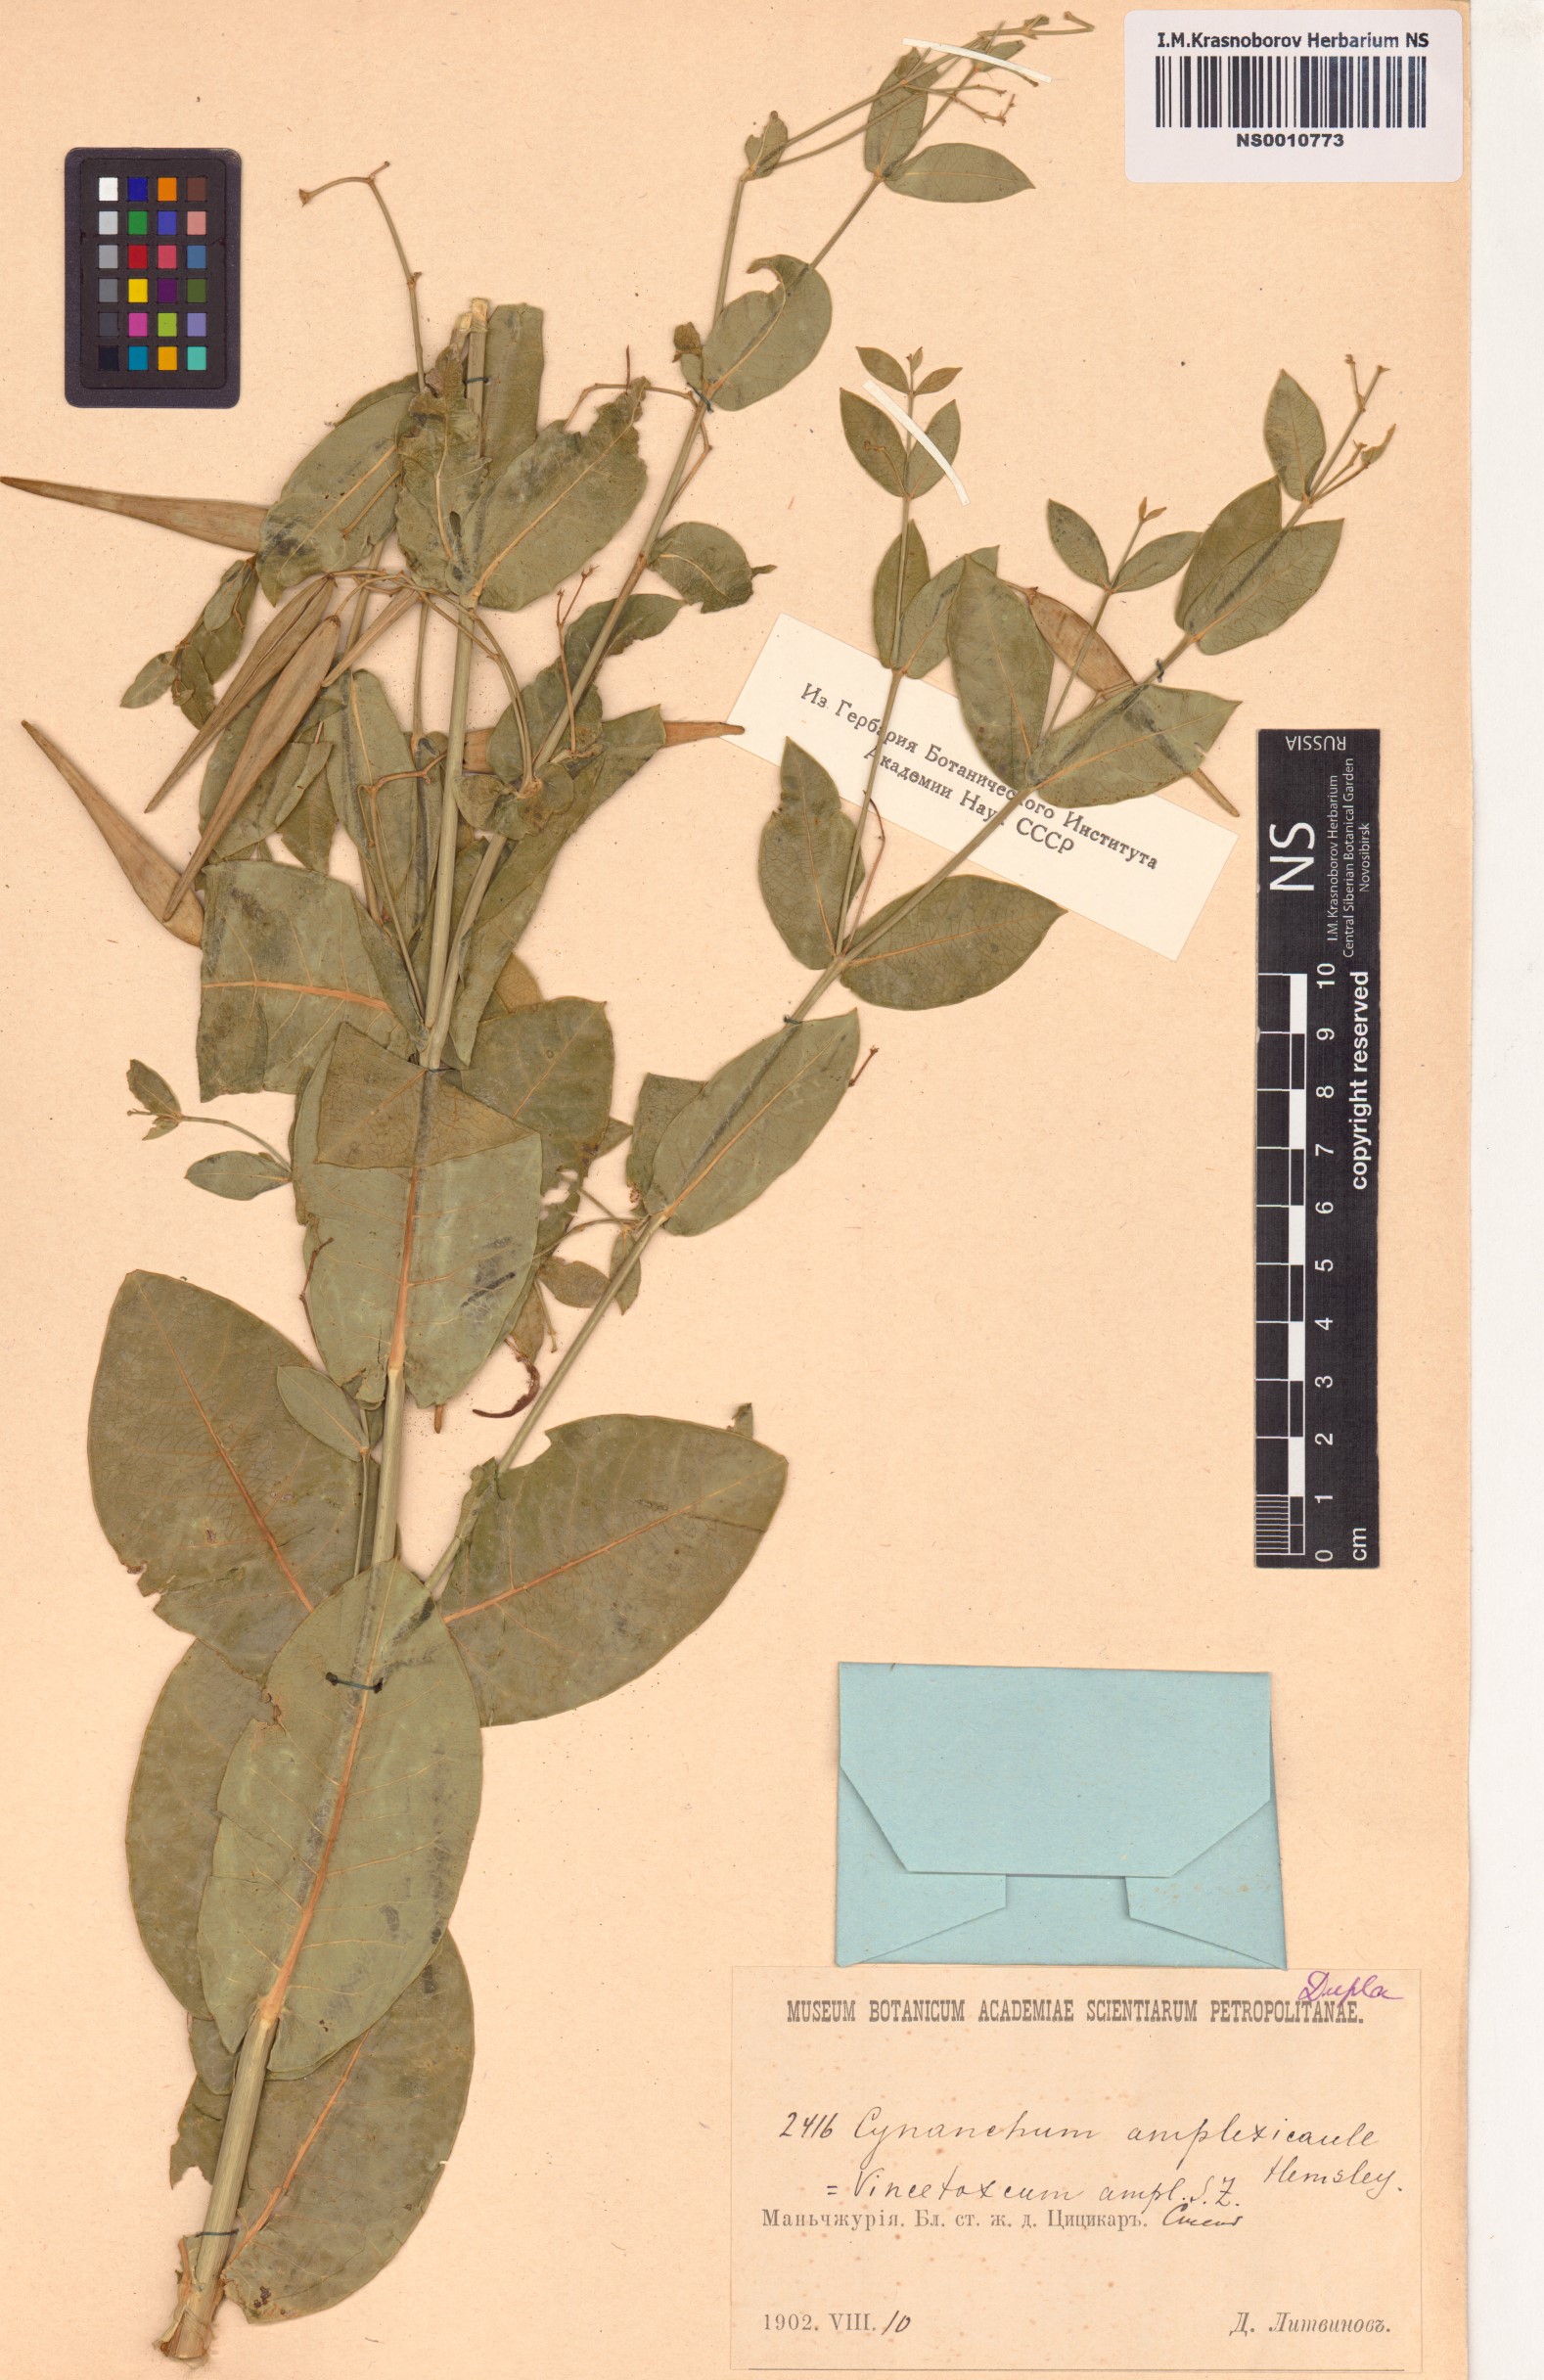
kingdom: Plantae
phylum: Tracheophyta
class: Magnoliopsida
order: Gentianales
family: Apocynaceae
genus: Vincetoxicum
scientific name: Vincetoxicum amplexicaule
